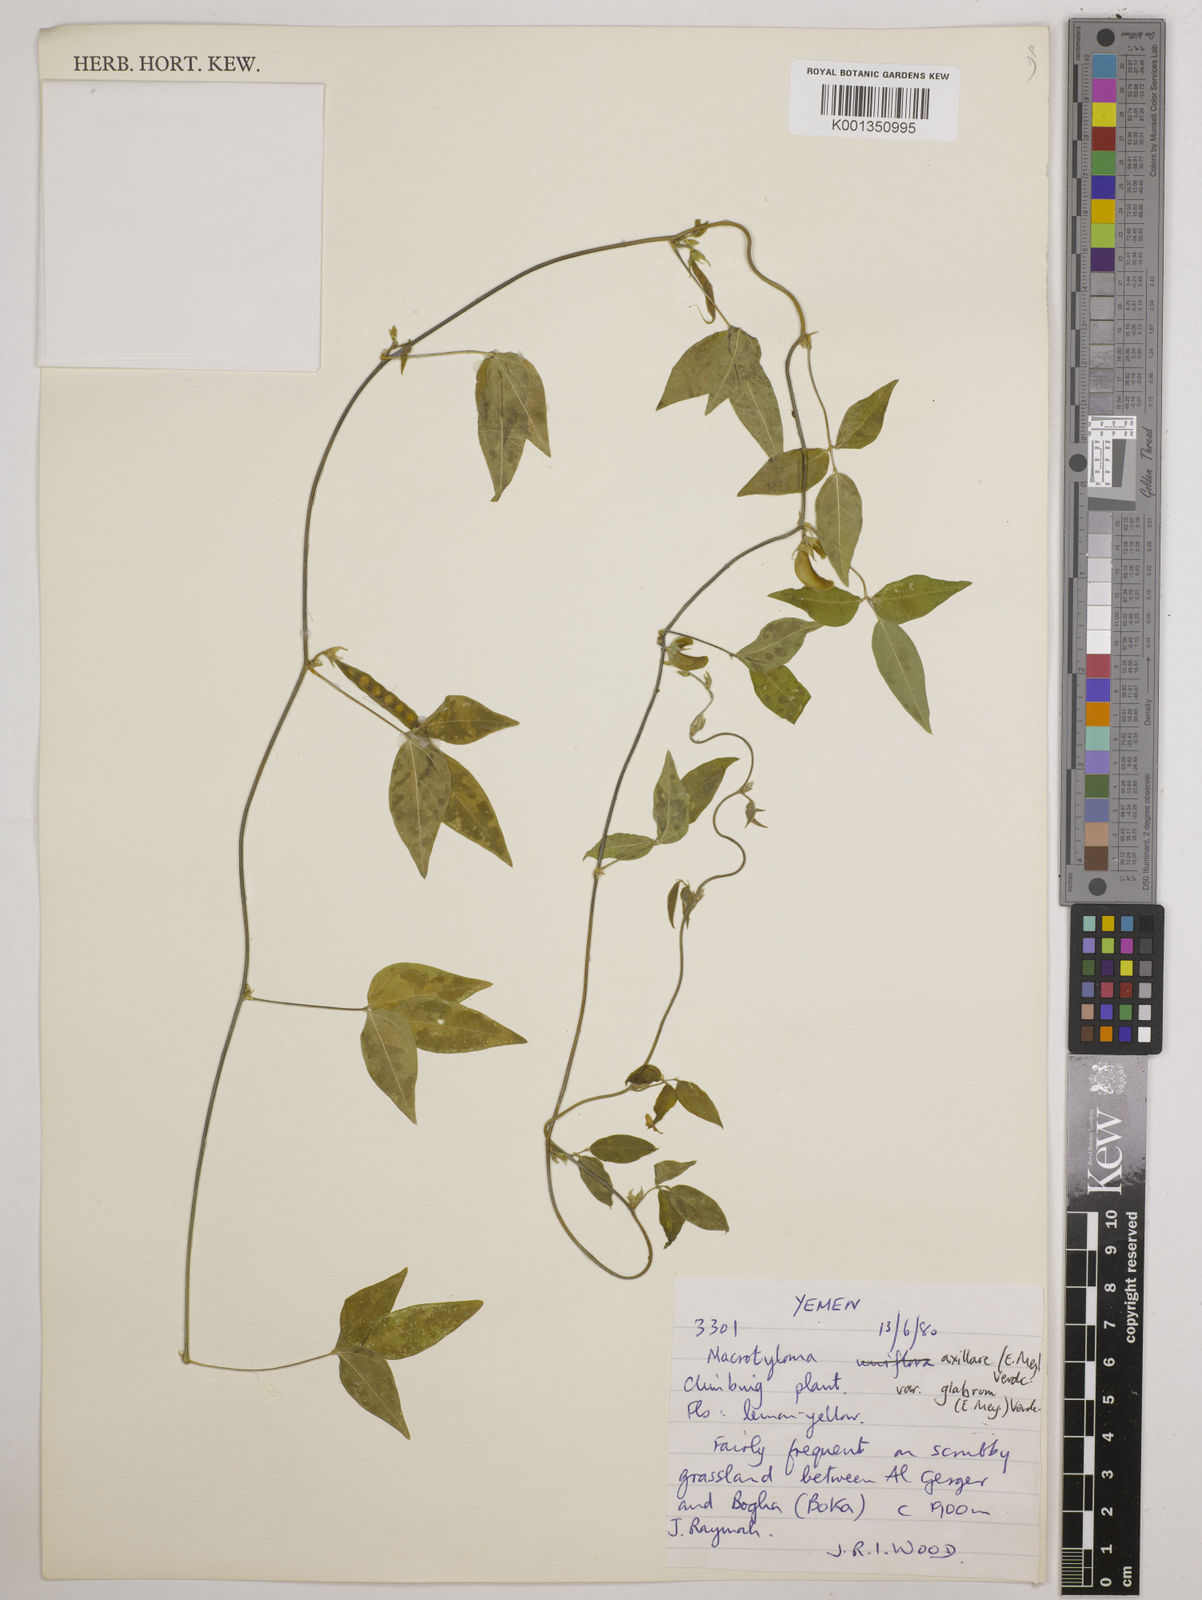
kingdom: Plantae
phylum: Tracheophyta
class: Magnoliopsida
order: Fabales
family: Fabaceae
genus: Macrotyloma
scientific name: Macrotyloma
